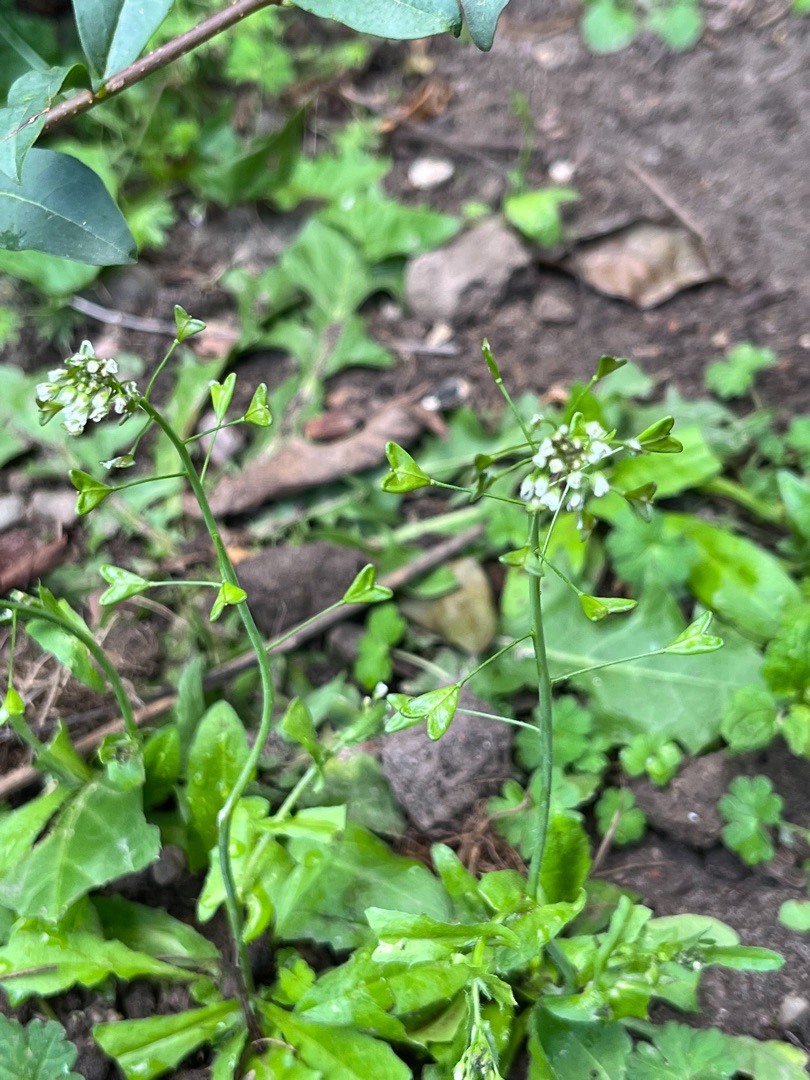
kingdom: Plantae
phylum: Tracheophyta
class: Magnoliopsida
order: Brassicales
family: Brassicaceae
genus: Capsella
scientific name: Capsella bursa-pastoris
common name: Hyrdetaske
